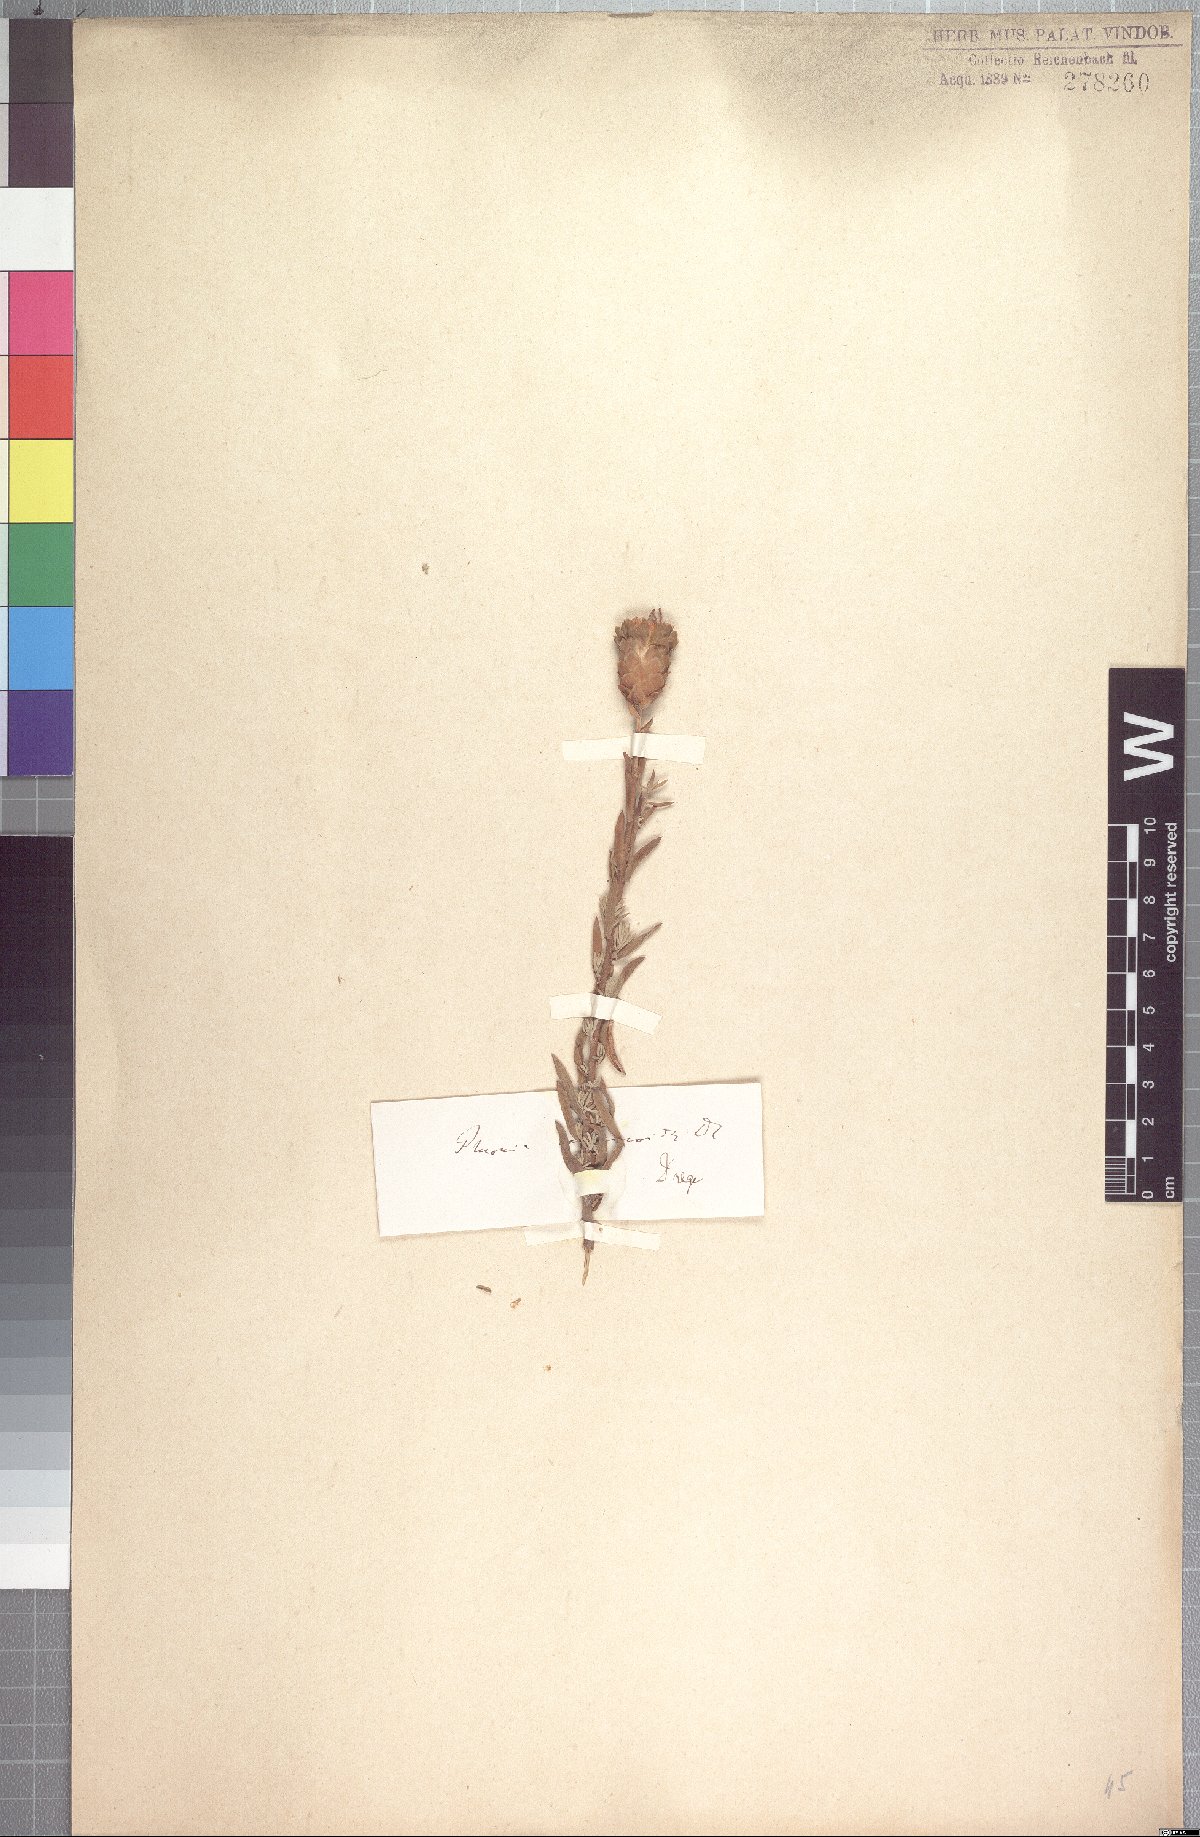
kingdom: Plantae
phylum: Tracheophyta
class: Magnoliopsida
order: Asterales
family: Asteraceae
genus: Pteronia
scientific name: Pteronia centauroides
